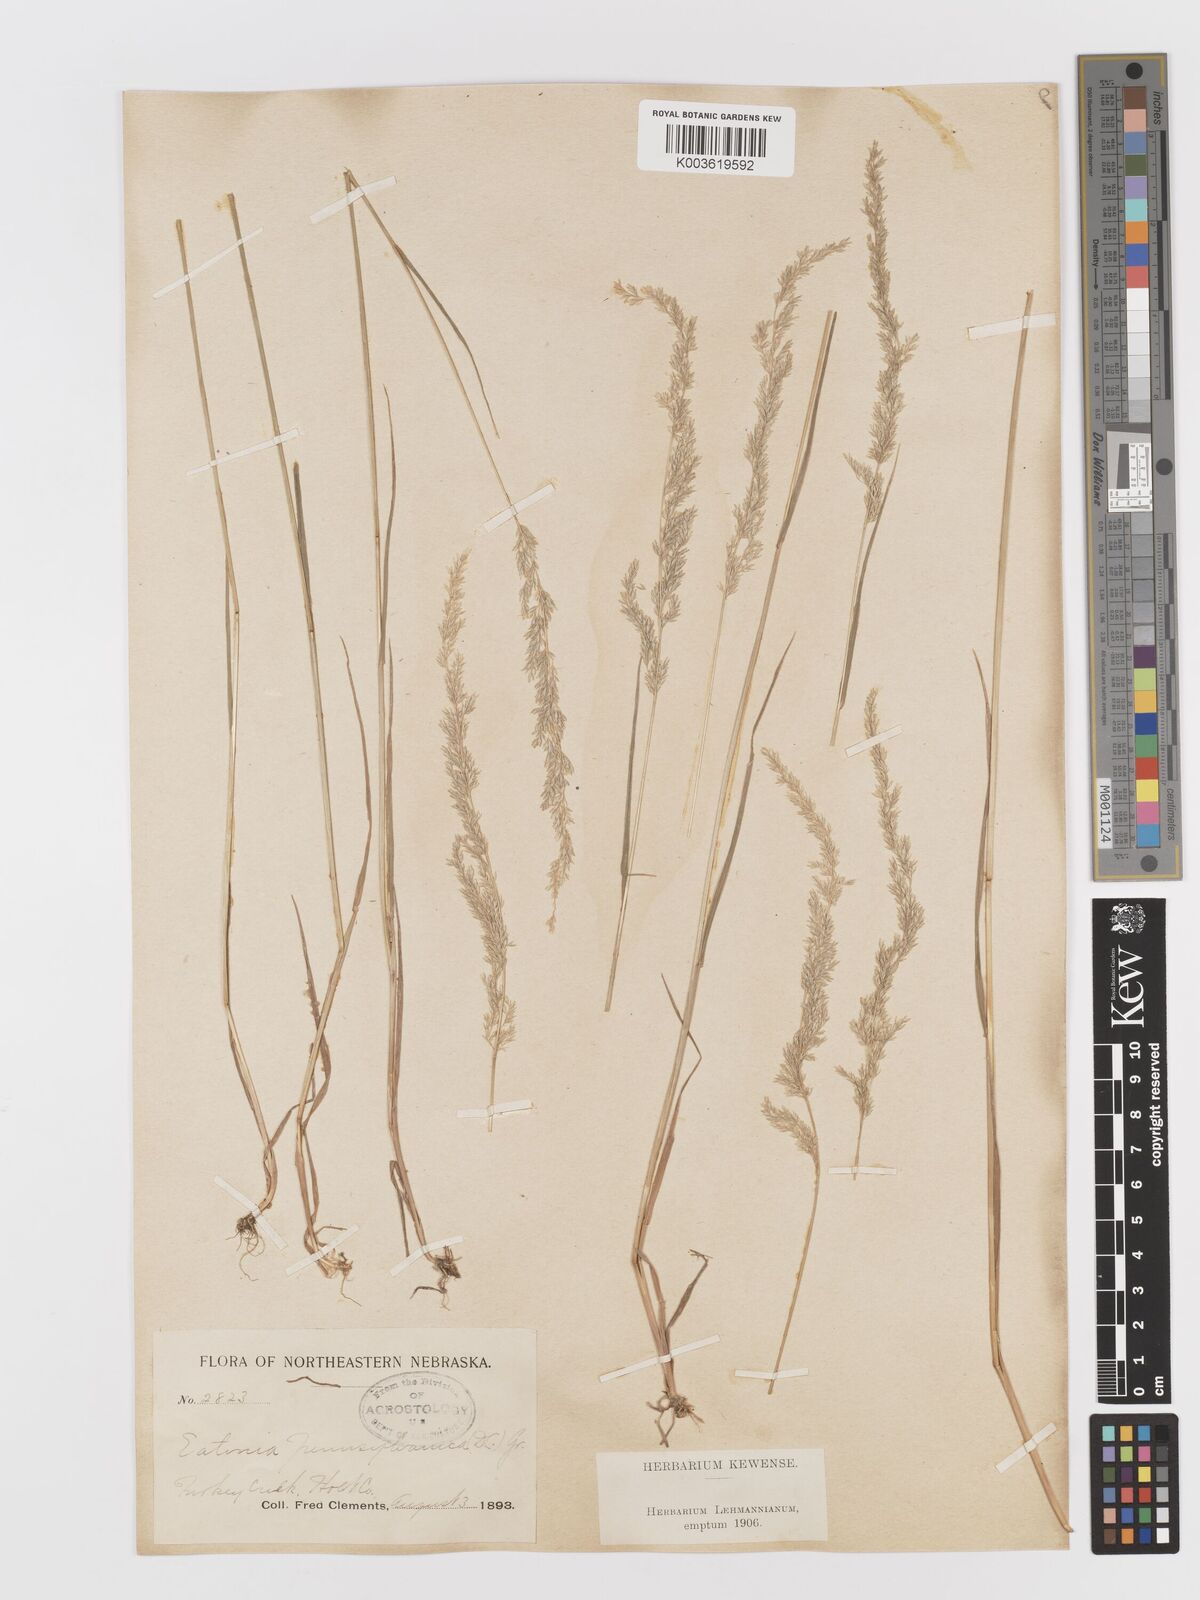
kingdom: Plantae
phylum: Tracheophyta
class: Liliopsida
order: Poales
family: Poaceae
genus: Sphenopholis
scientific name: Sphenopholis obtusata
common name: Prairie grass
